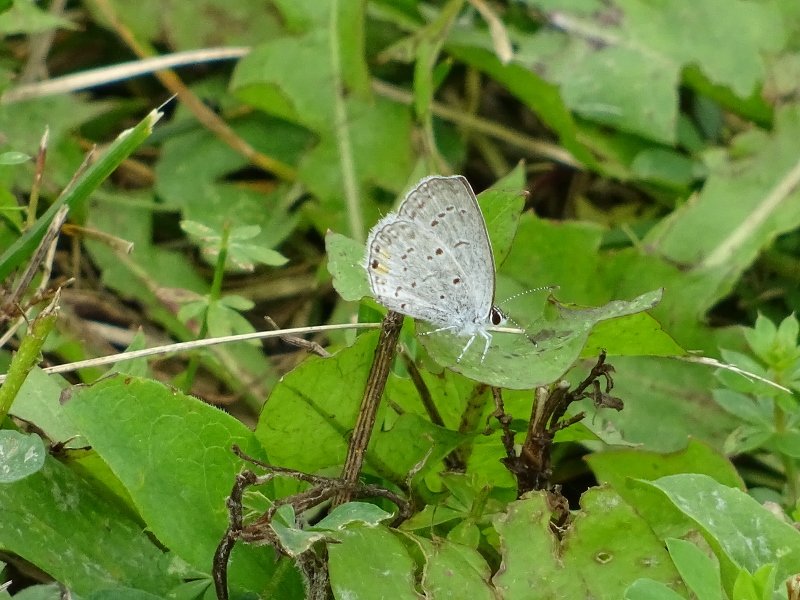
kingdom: Animalia
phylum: Arthropoda
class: Insecta
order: Lepidoptera
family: Lycaenidae
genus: Elkalyce
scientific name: Elkalyce comyntas
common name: Eastern Tailed-Blue
